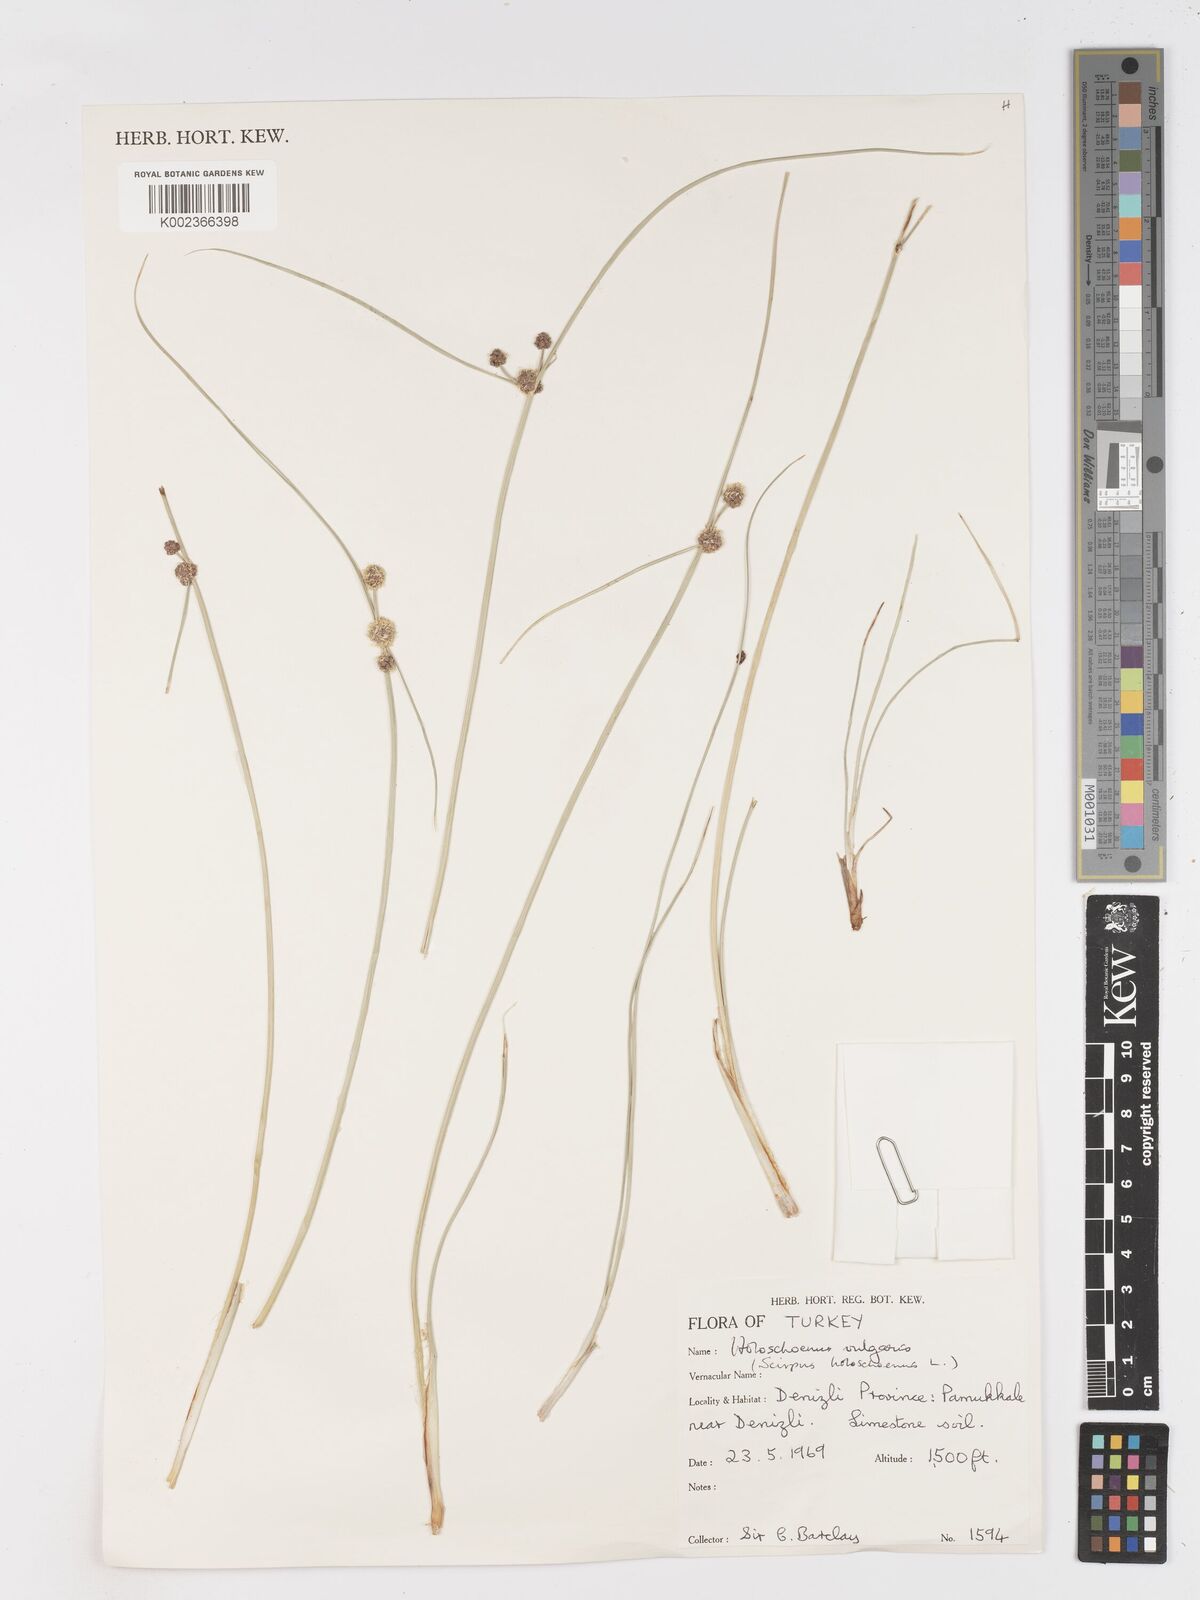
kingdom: Plantae
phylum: Tracheophyta
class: Liliopsida
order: Poales
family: Cyperaceae
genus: Scirpoides
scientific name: Scirpoides holoschoenus
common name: Round-headed club-rush
